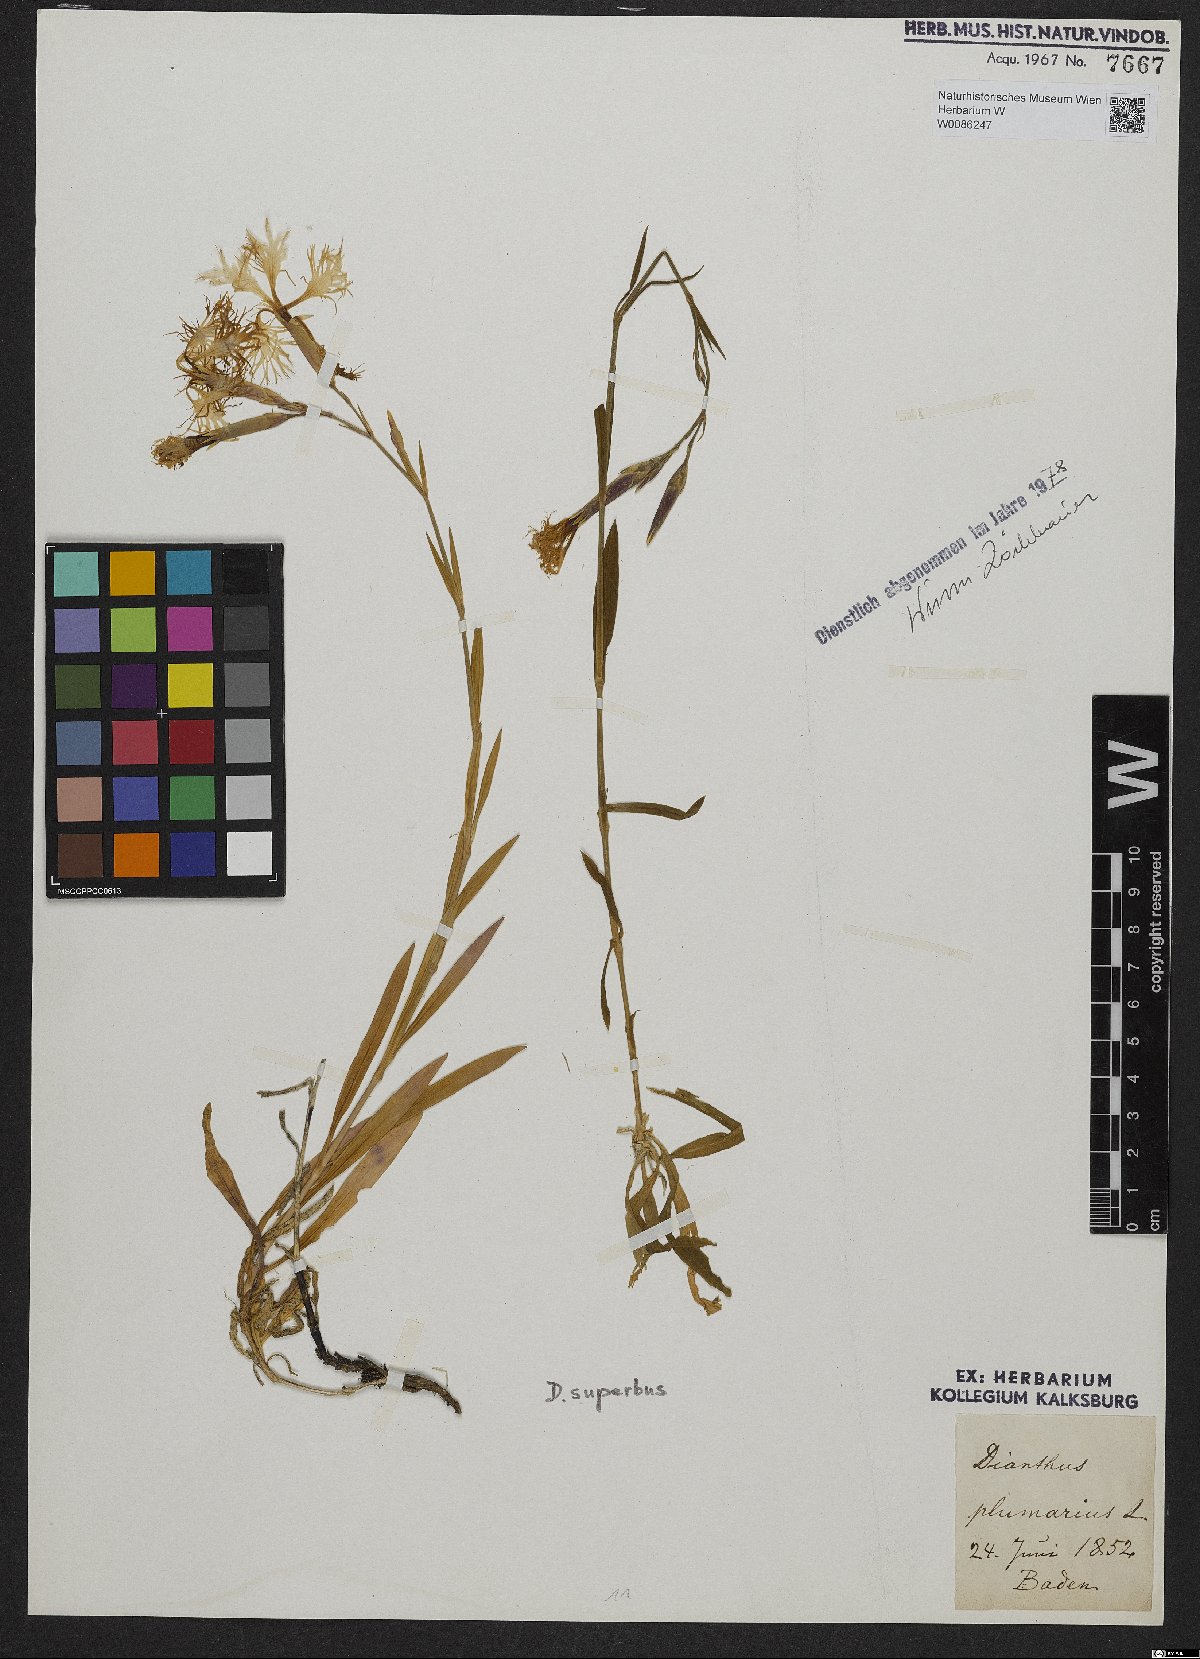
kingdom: Plantae
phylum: Tracheophyta
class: Magnoliopsida
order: Caryophyllales
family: Caryophyllaceae
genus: Dianthus
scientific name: Dianthus superbus
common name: Fringed pink
